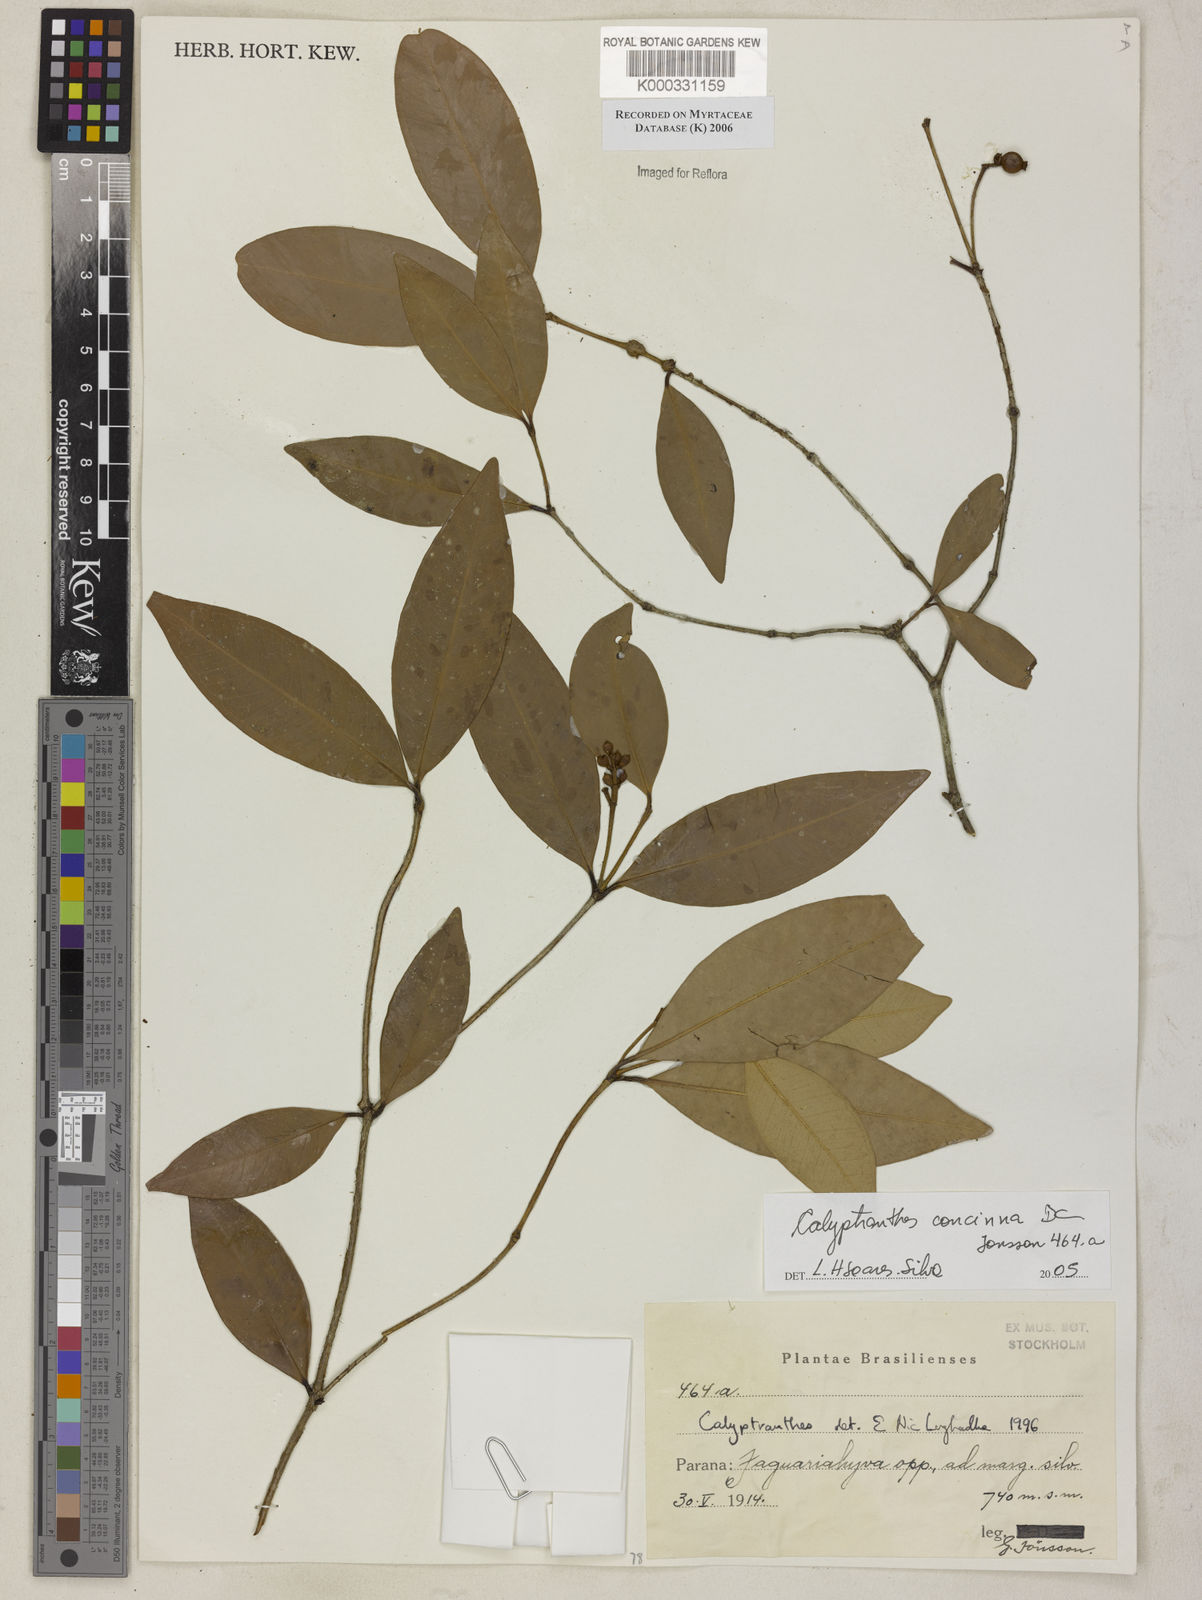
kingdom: Plantae
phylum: Tracheophyta
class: Magnoliopsida
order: Myrtales
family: Myrtaceae
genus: Myrcia
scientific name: Myrcia cruciflora
